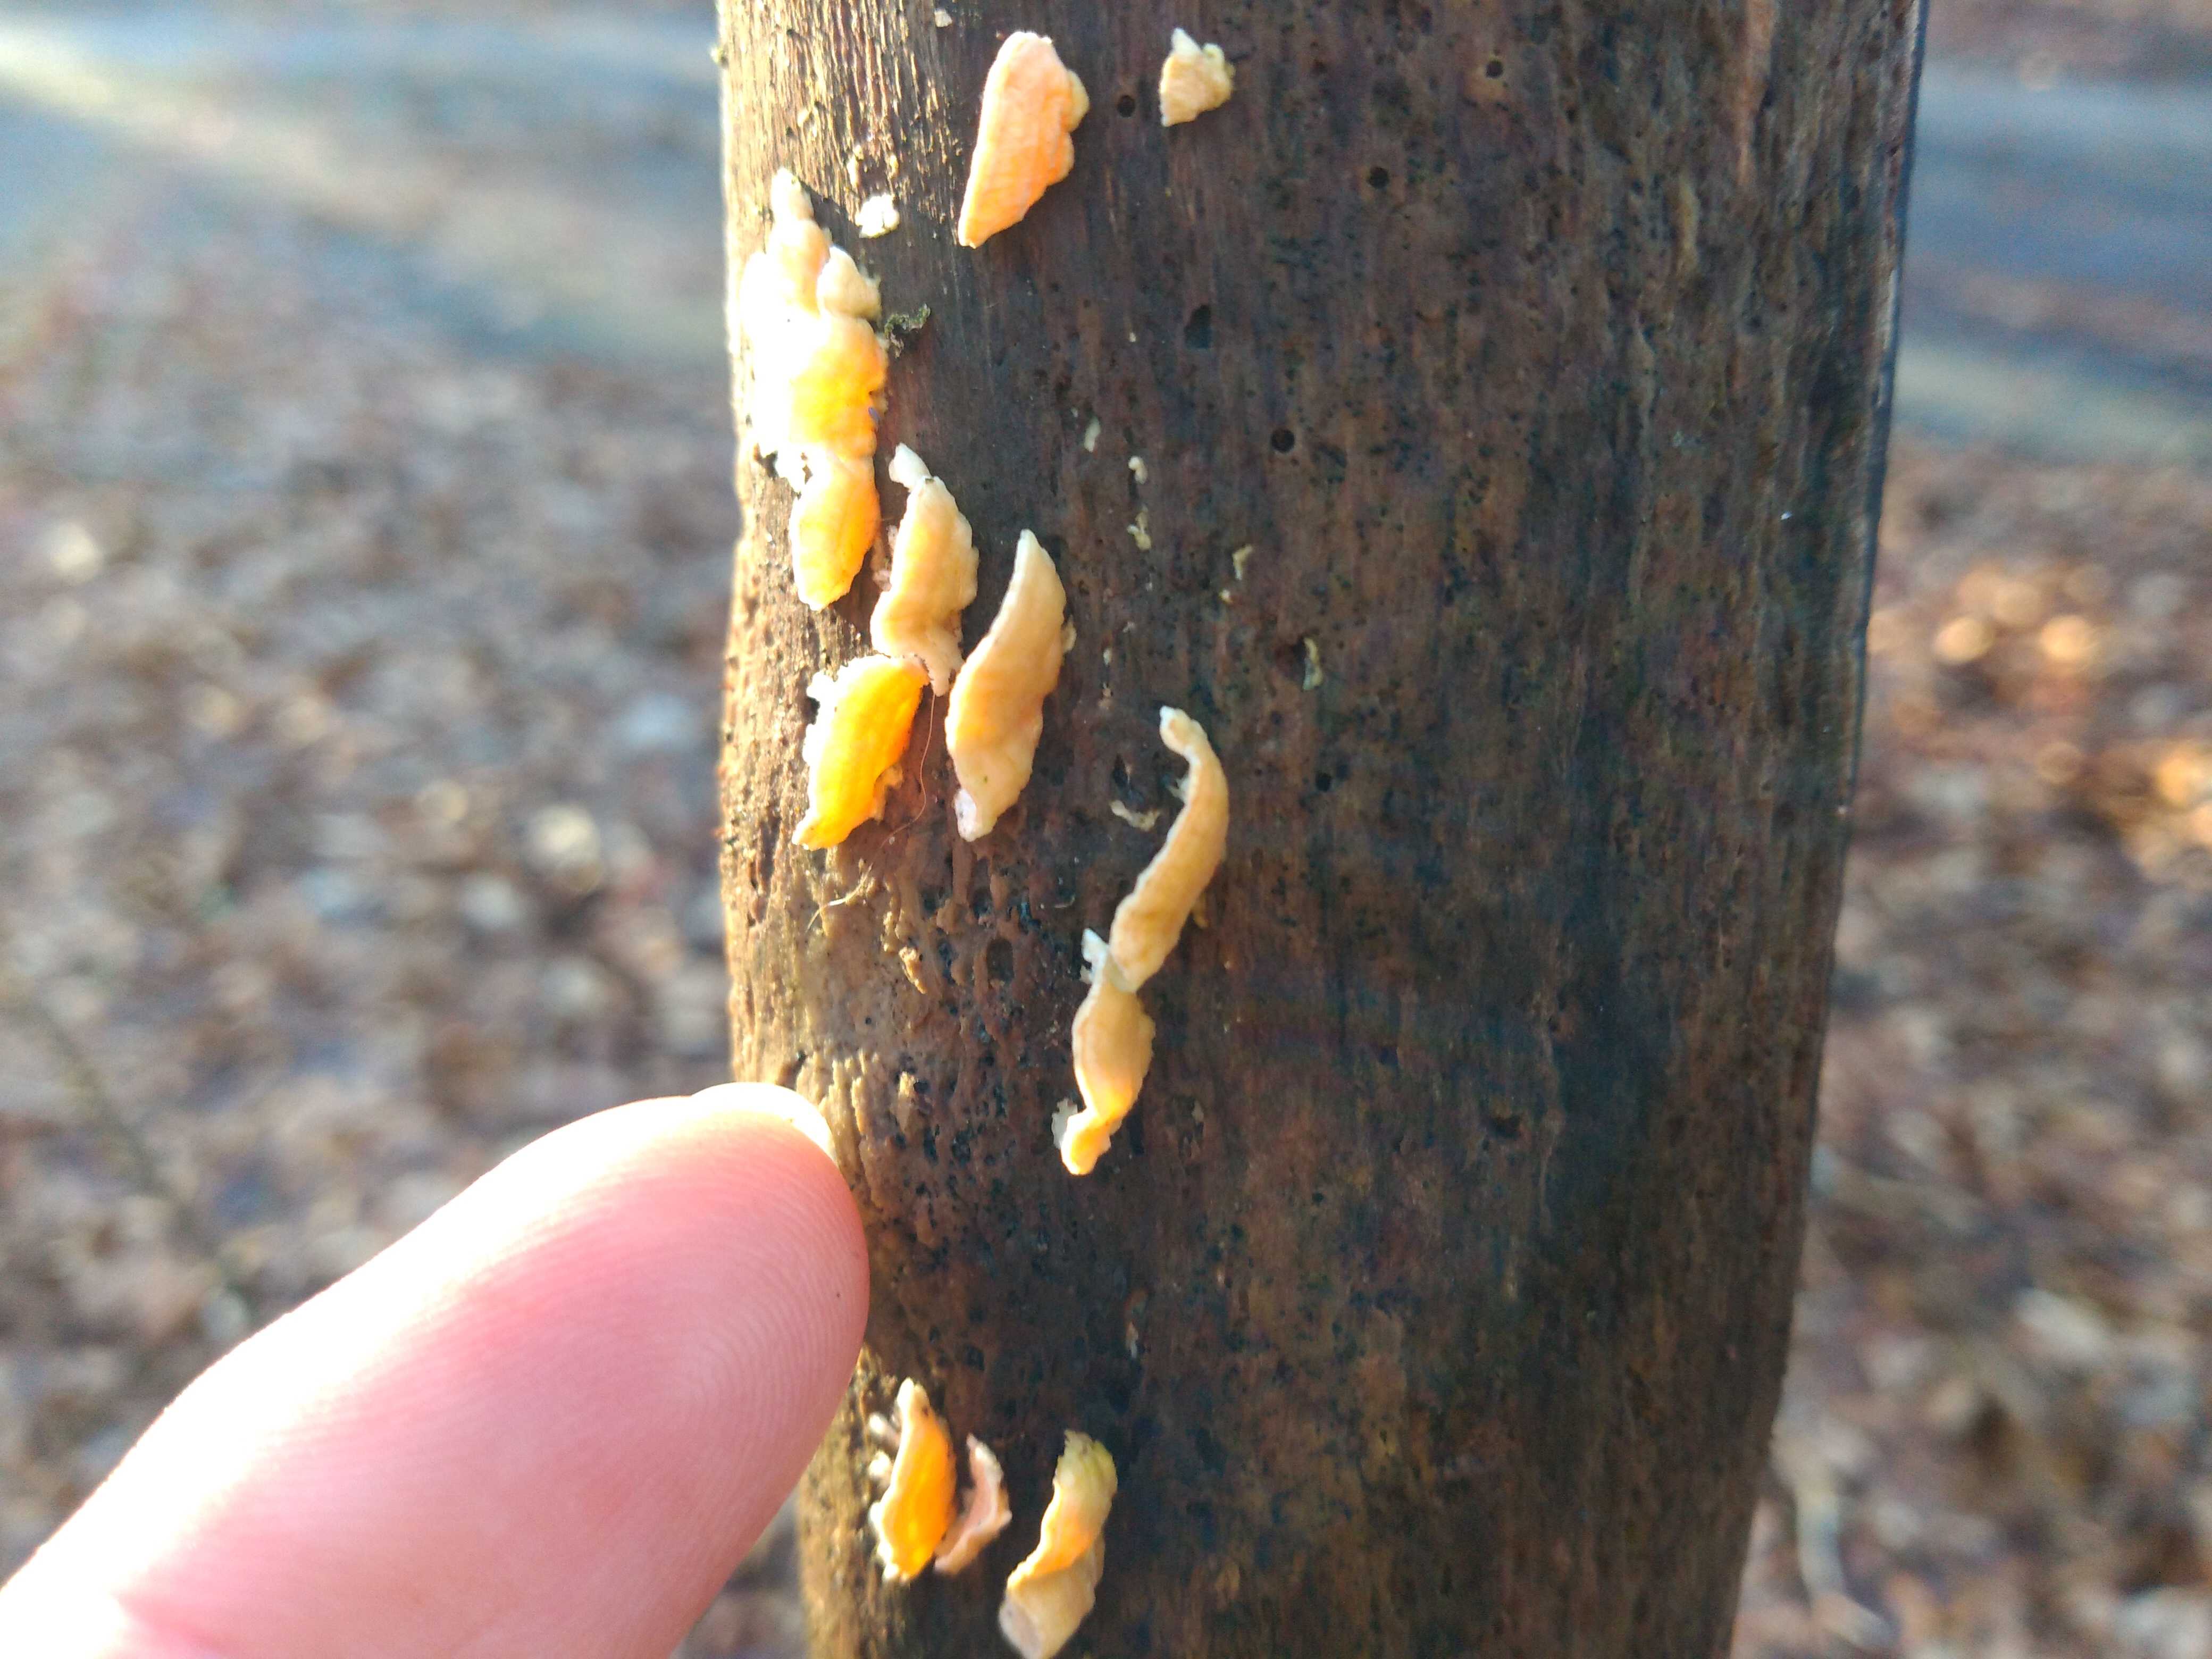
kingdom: Fungi
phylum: Basidiomycota
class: Agaricomycetes
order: Polyporales
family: Steccherinaceae
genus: Steccherinum
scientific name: Steccherinum
